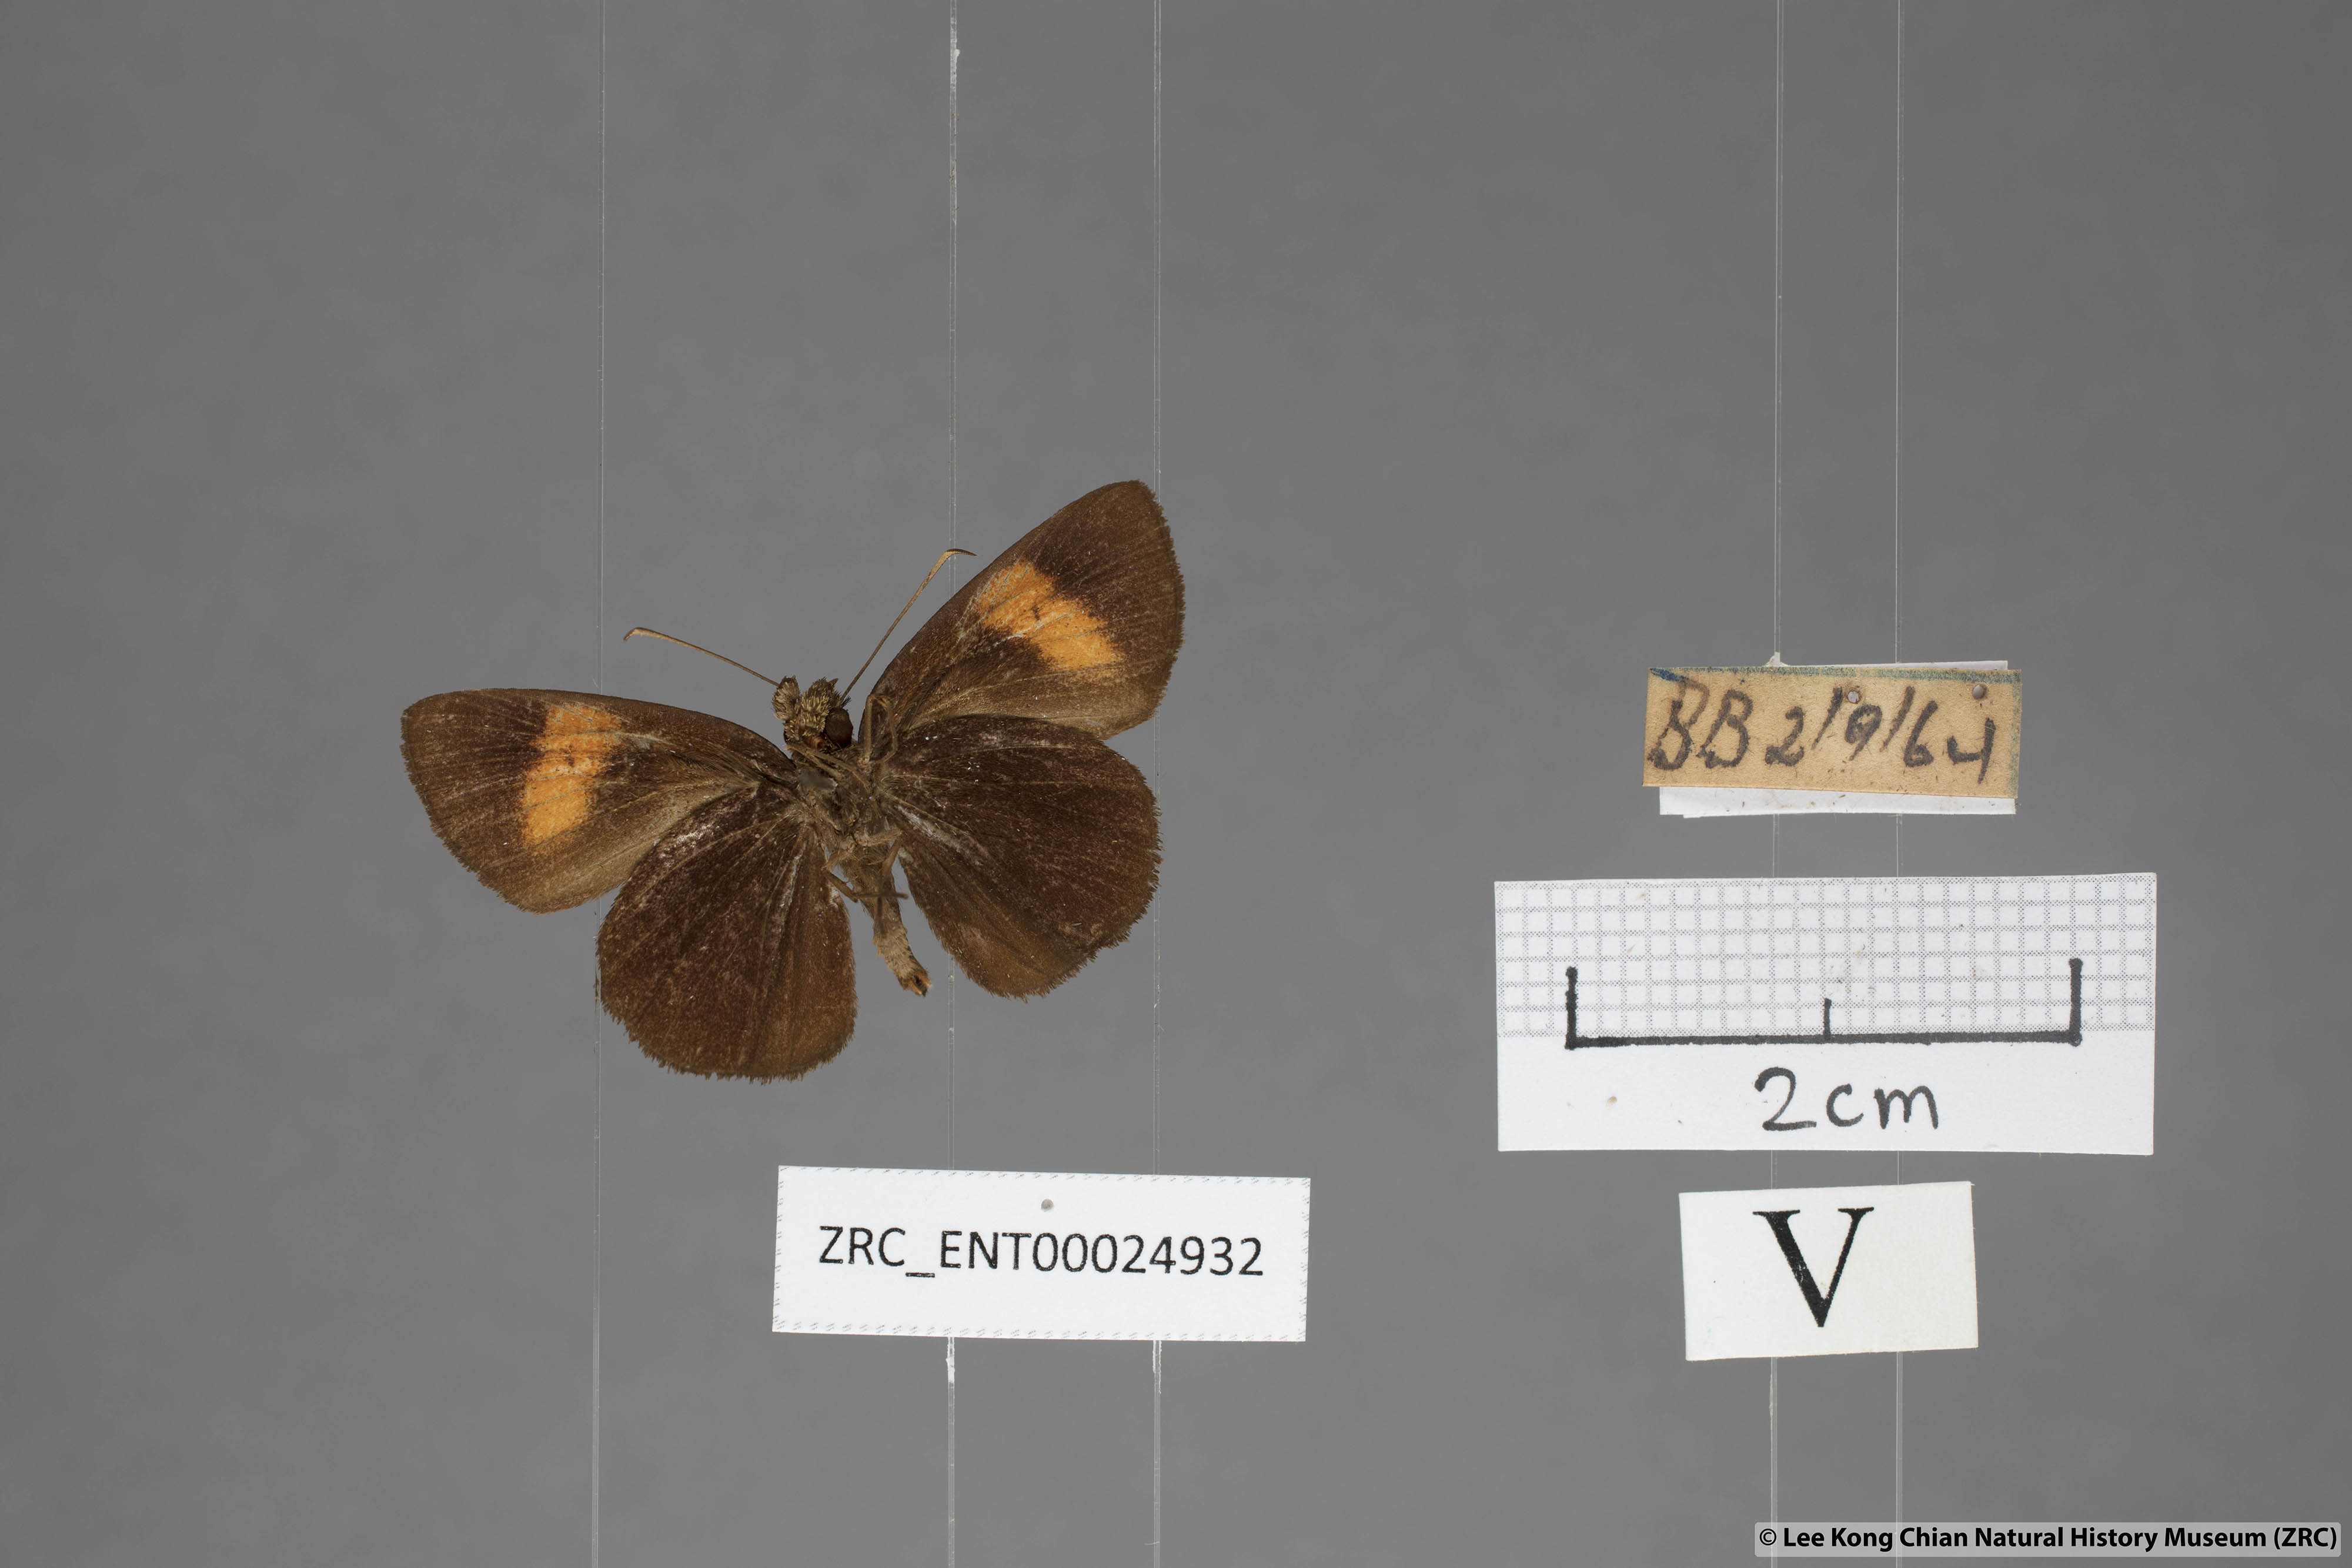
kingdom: Animalia
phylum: Arthropoda
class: Insecta
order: Lepidoptera
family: Hesperiidae
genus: Koruthaialos
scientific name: Koruthaialos rubecula
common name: Narrow-banded velvet bob
